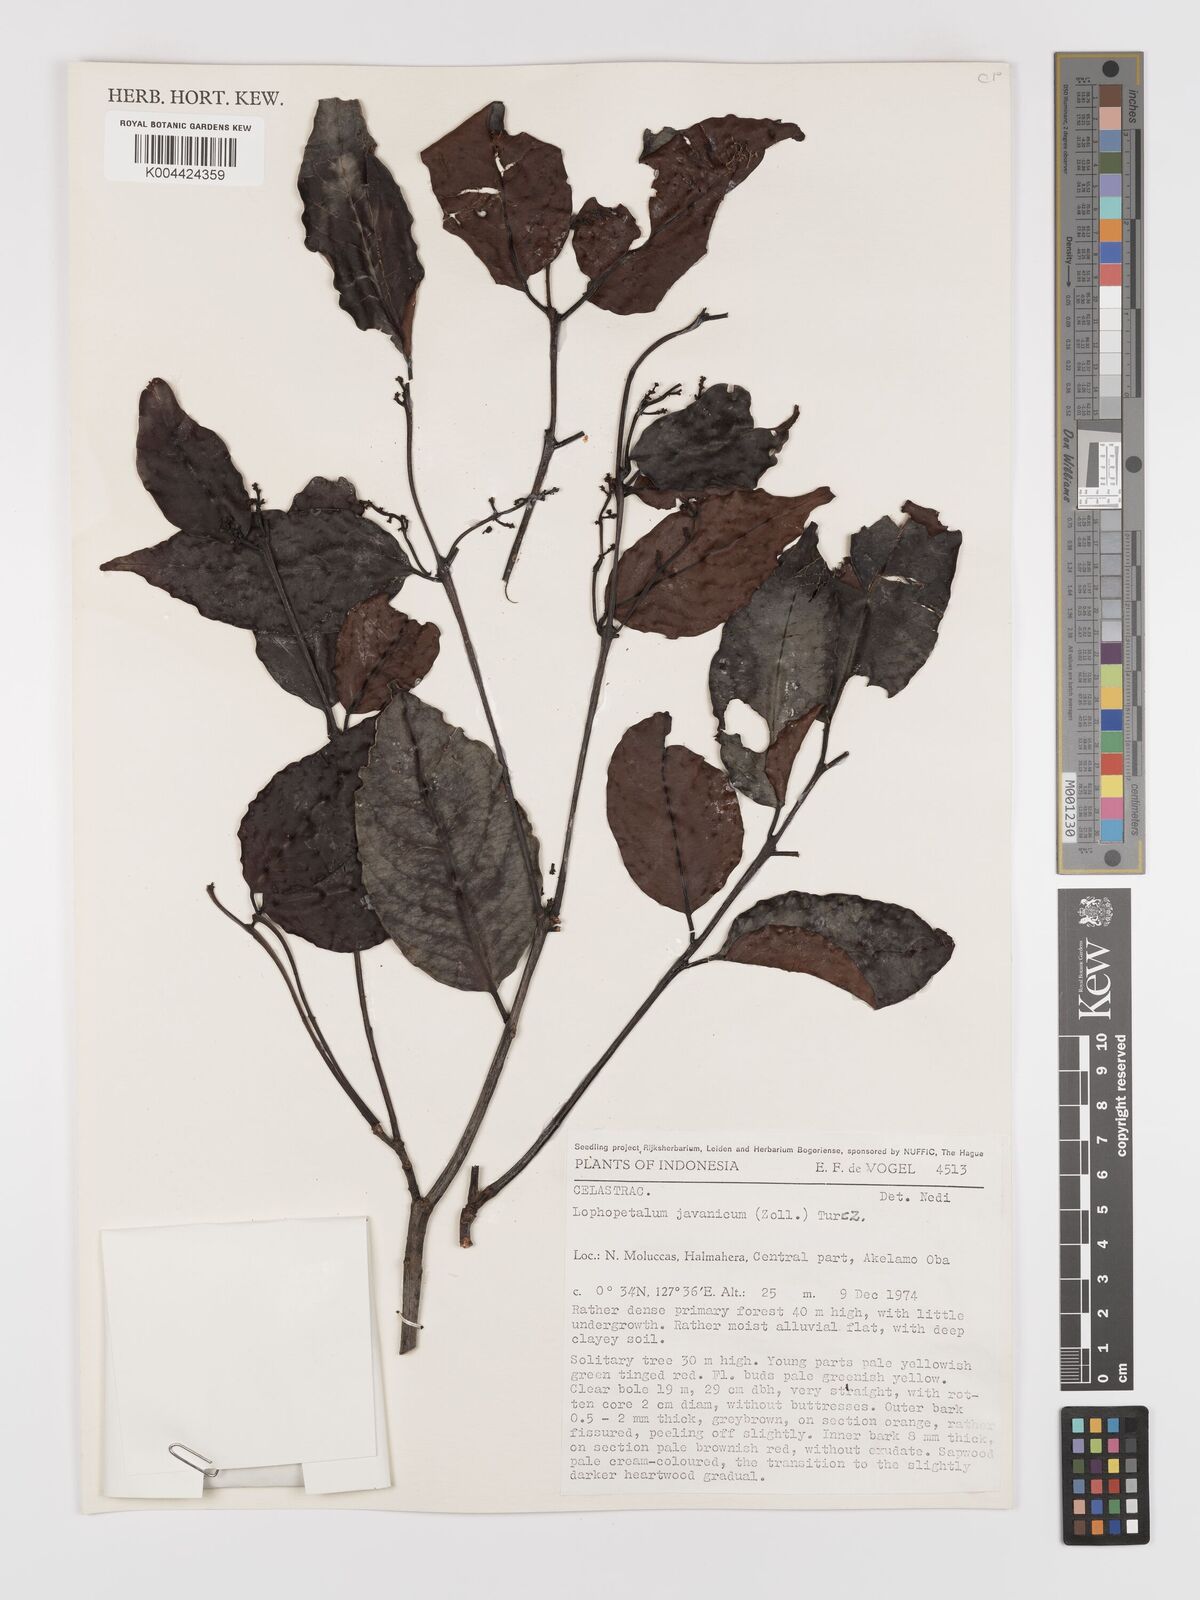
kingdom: Plantae
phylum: Tracheophyta
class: Magnoliopsida
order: Celastrales
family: Celastraceae
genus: Lophopetalum
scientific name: Lophopetalum javanicum
